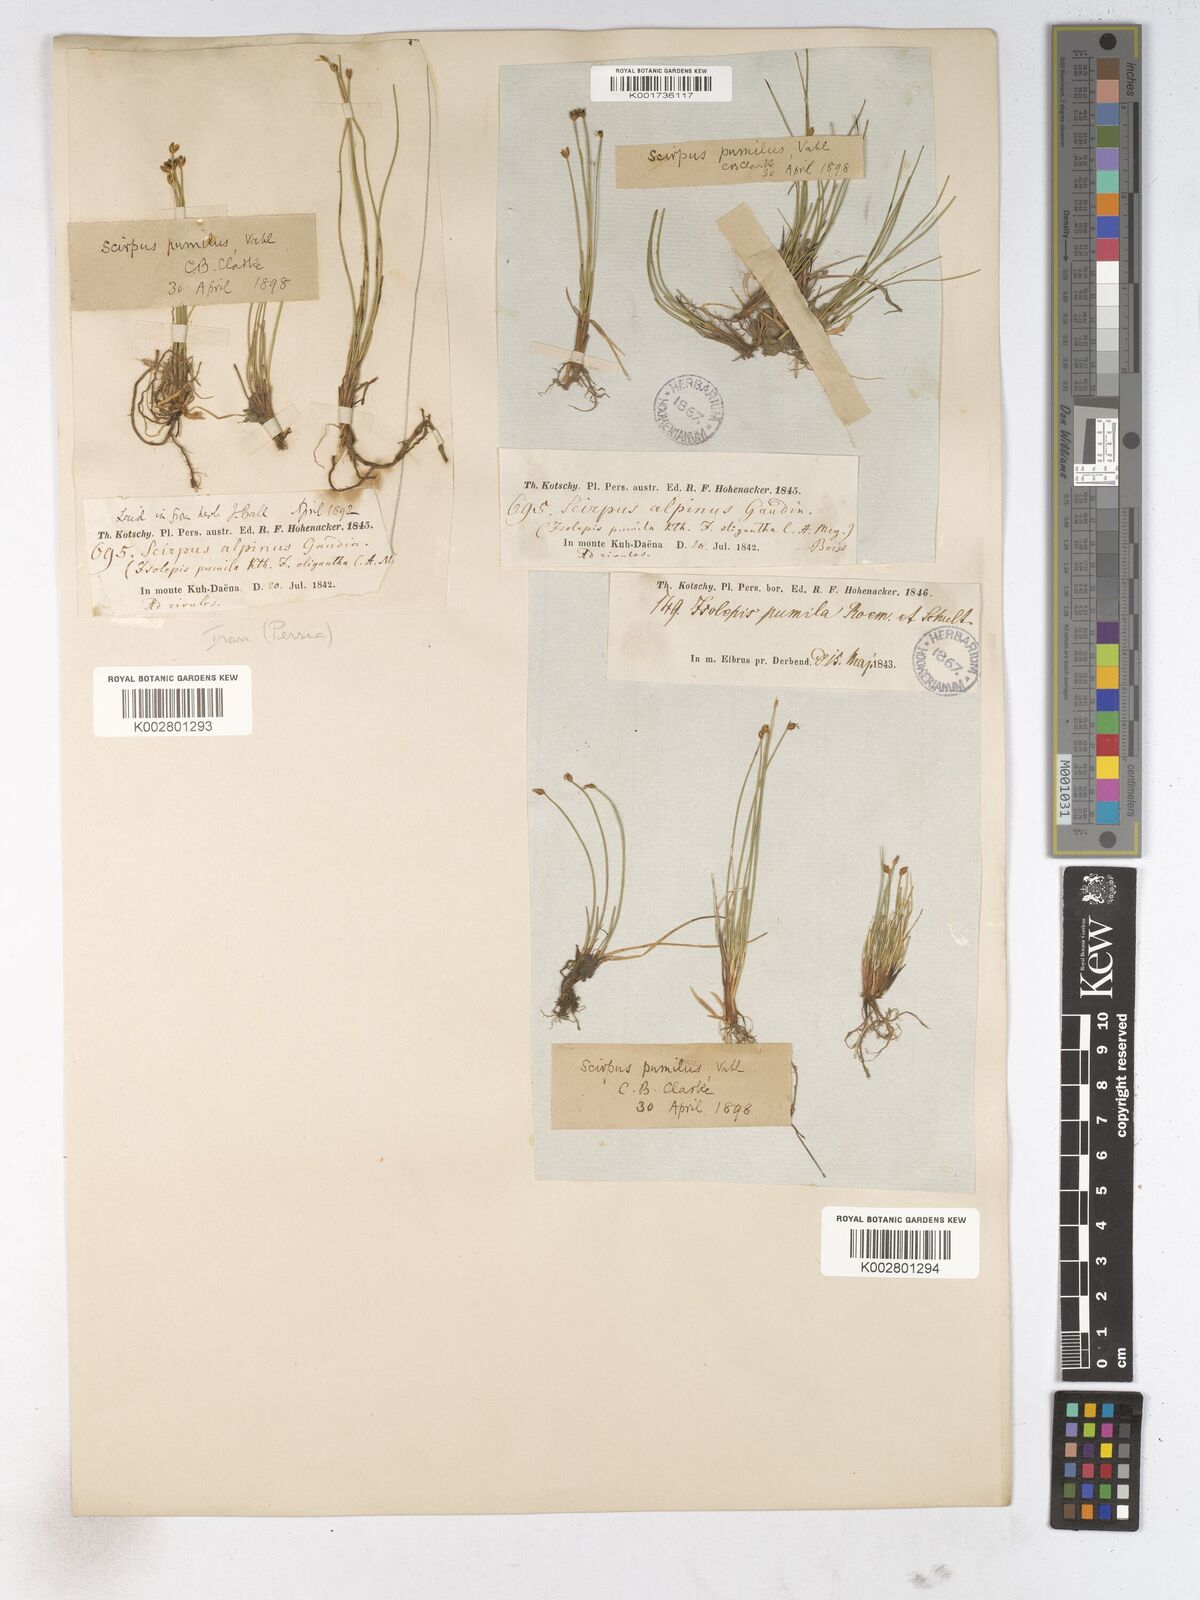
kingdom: Plantae
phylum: Tracheophyta
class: Liliopsida
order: Poales
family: Cyperaceae
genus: Trichophorum
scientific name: Trichophorum pumilum
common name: Rolland's bulrush
